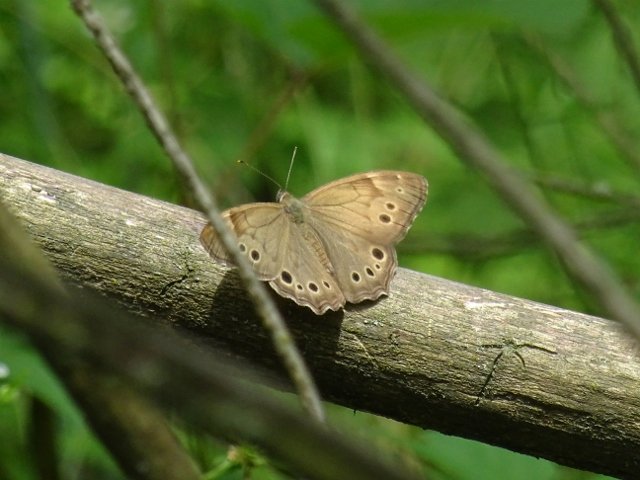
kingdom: Animalia
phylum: Arthropoda
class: Insecta
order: Lepidoptera
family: Nymphalidae
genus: Lethe
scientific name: Lethe anthedon
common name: Northern Pearly-Eye
